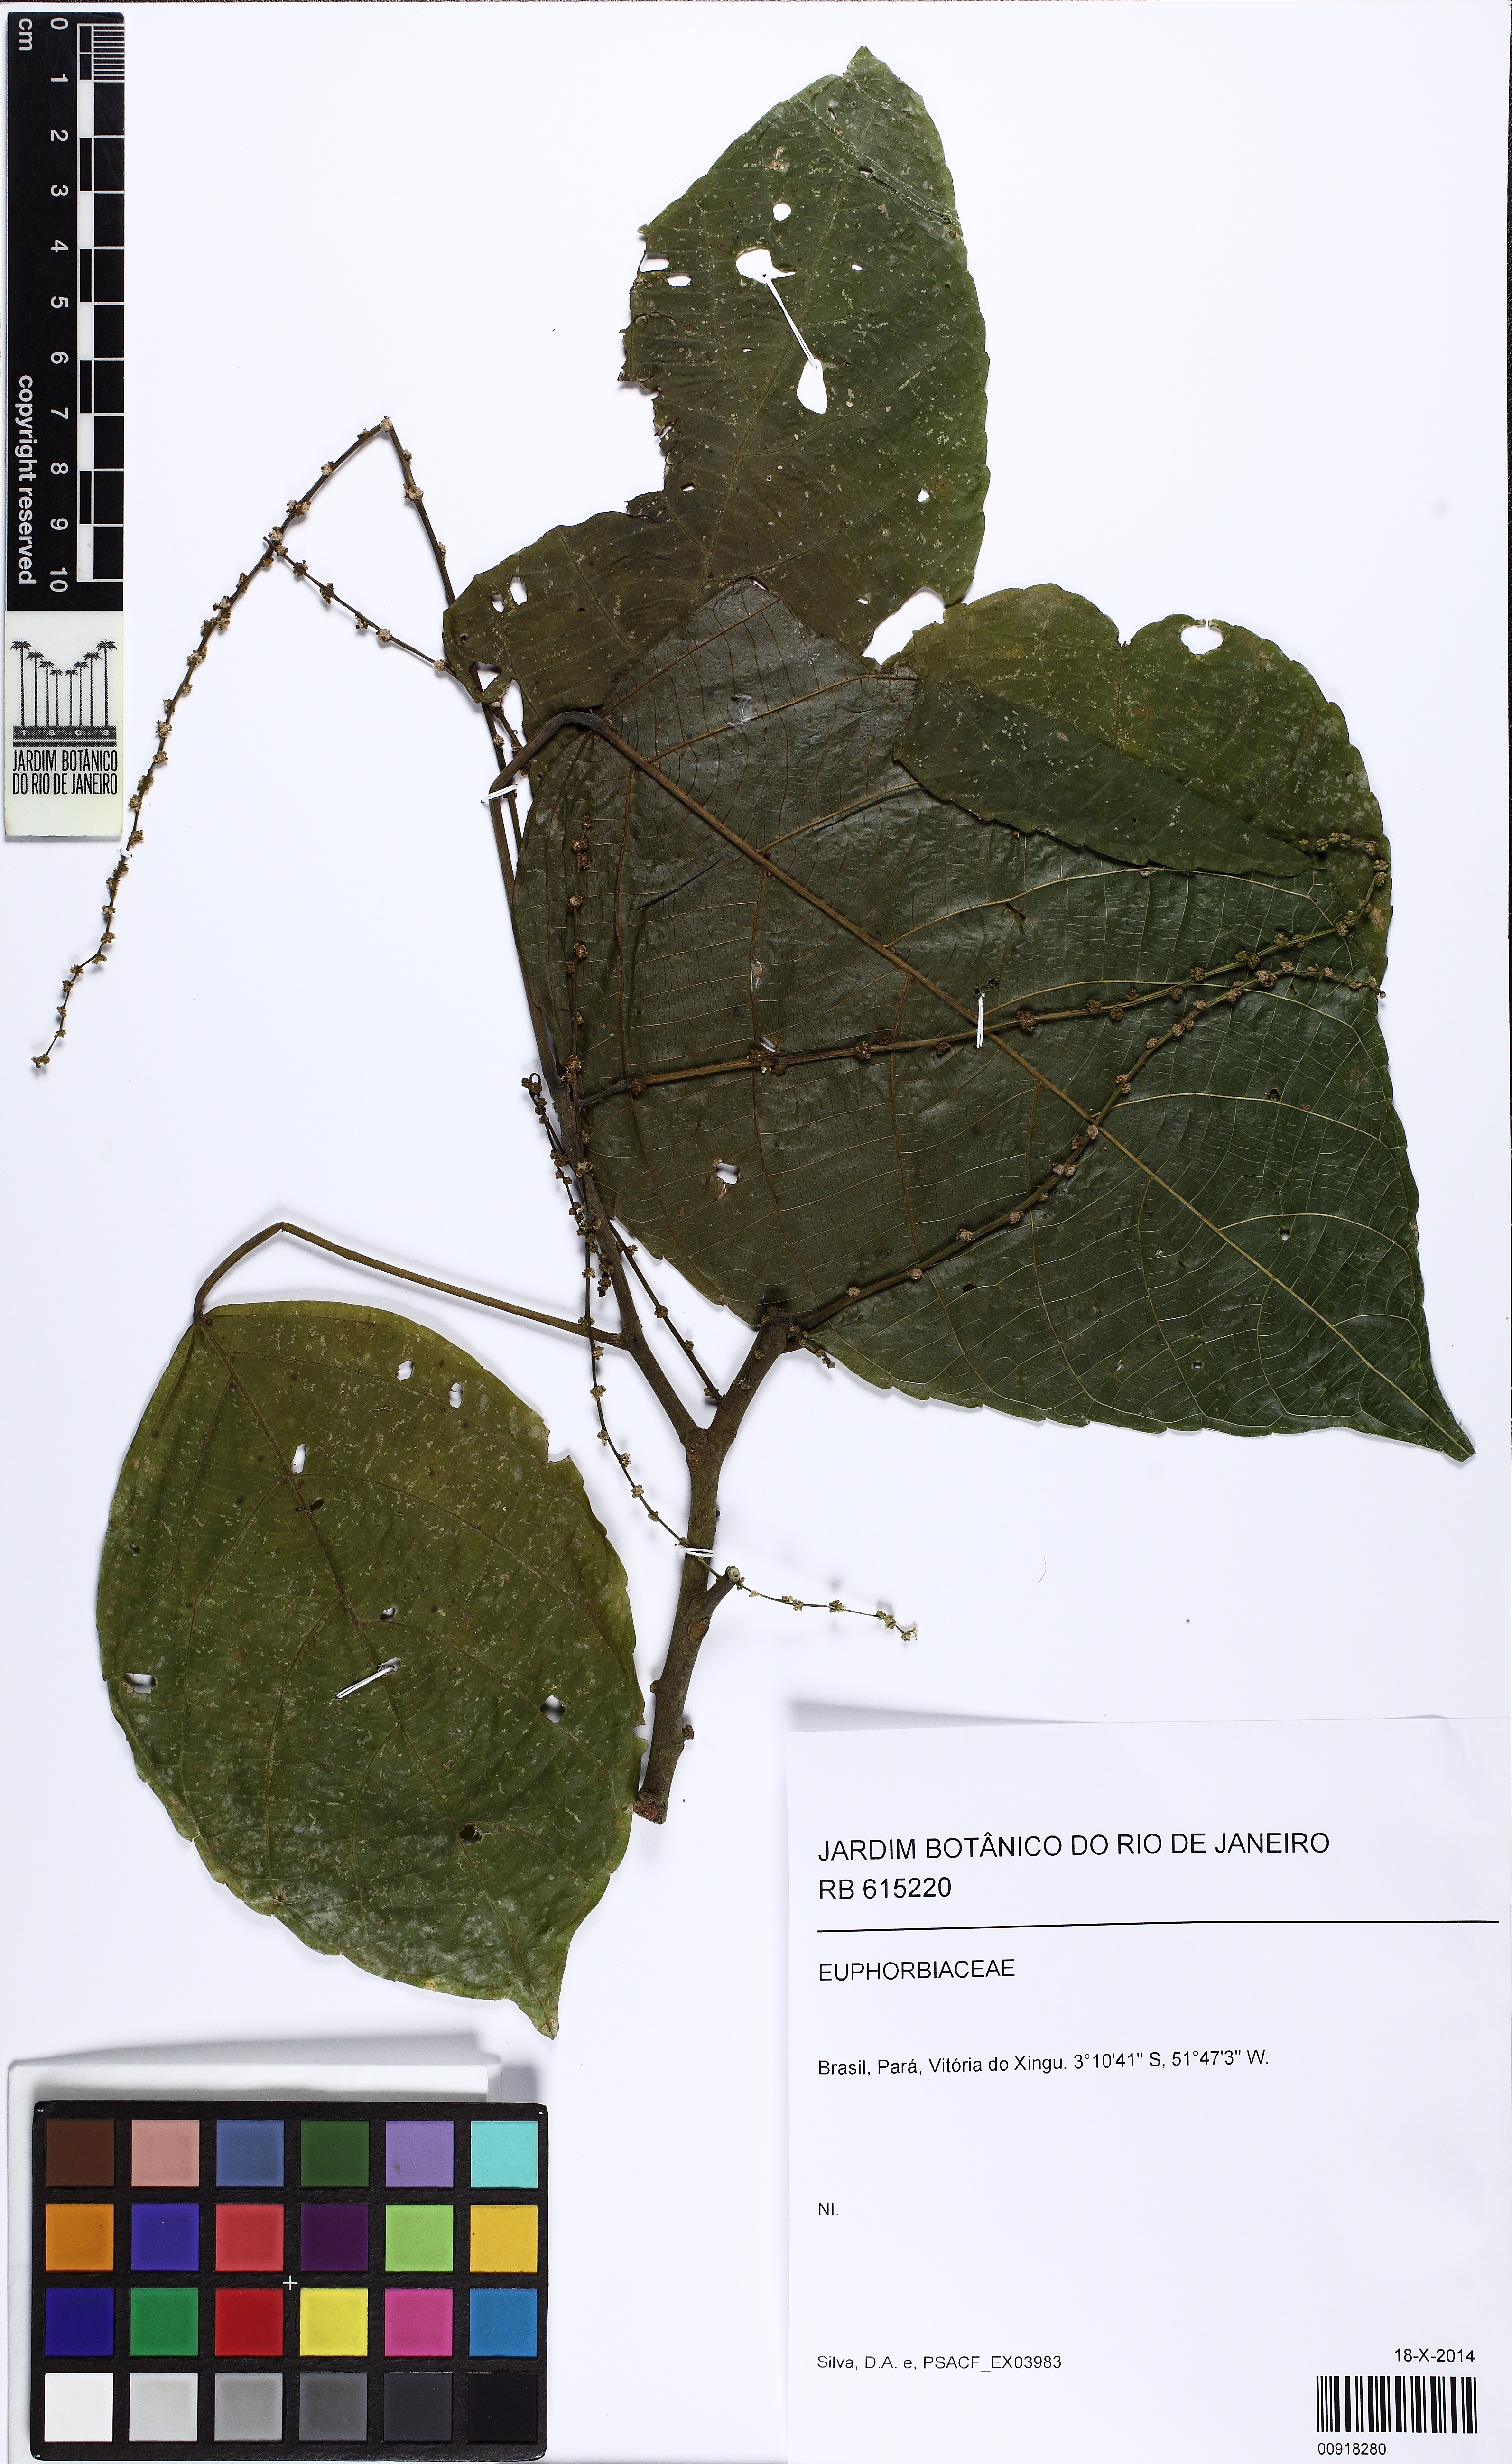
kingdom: Plantae
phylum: Tracheophyta
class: Magnoliopsida
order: Malpighiales
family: Euphorbiaceae
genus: Aparisthmium
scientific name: Aparisthmium cordatum
